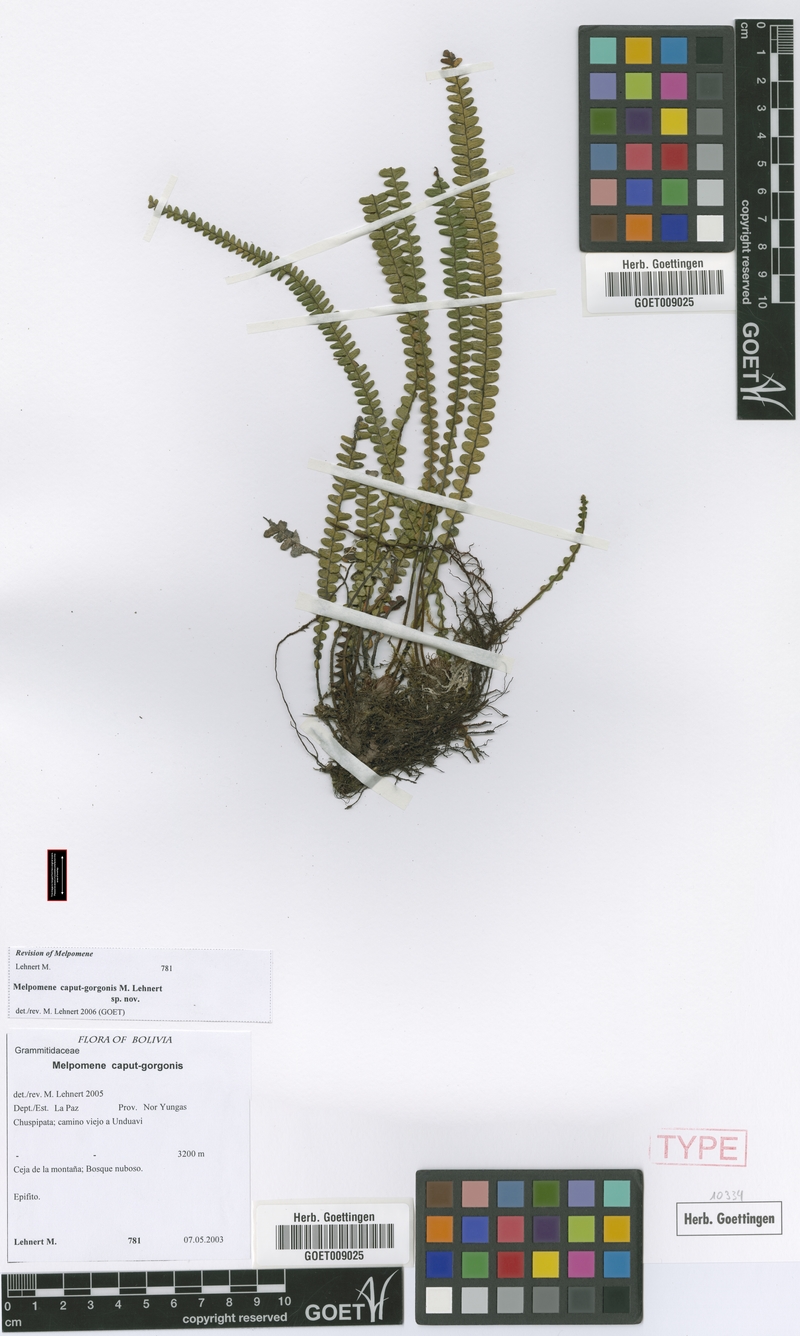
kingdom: Plantae
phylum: Tracheophyta
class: Polypodiopsida
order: Polypodiales
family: Polypodiaceae
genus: Melpomene
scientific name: Melpomene caput-gorgonis
